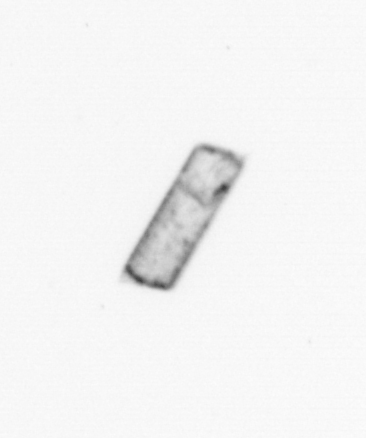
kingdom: Chromista
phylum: Ochrophyta
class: Bacillariophyceae
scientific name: Bacillariophyceae
